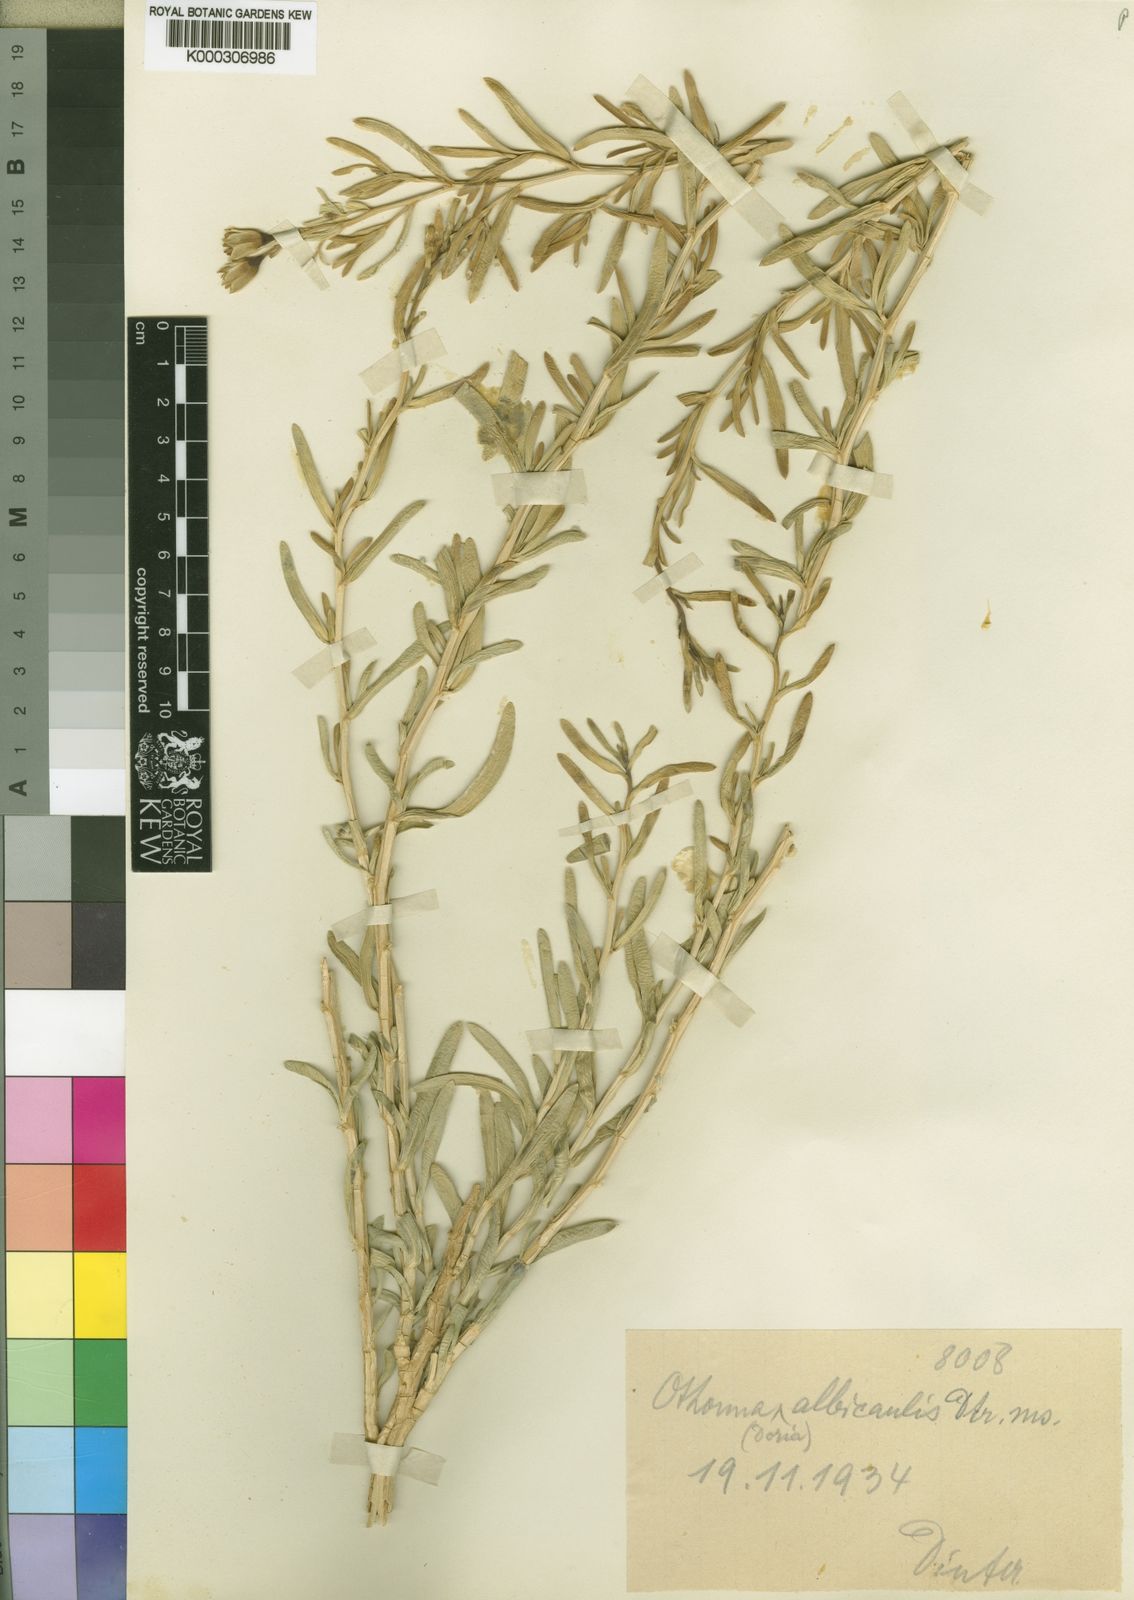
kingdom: Plantae
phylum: Tracheophyta
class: Magnoliopsida
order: Asterales
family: Asteraceae
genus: Othonna
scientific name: Othonna
